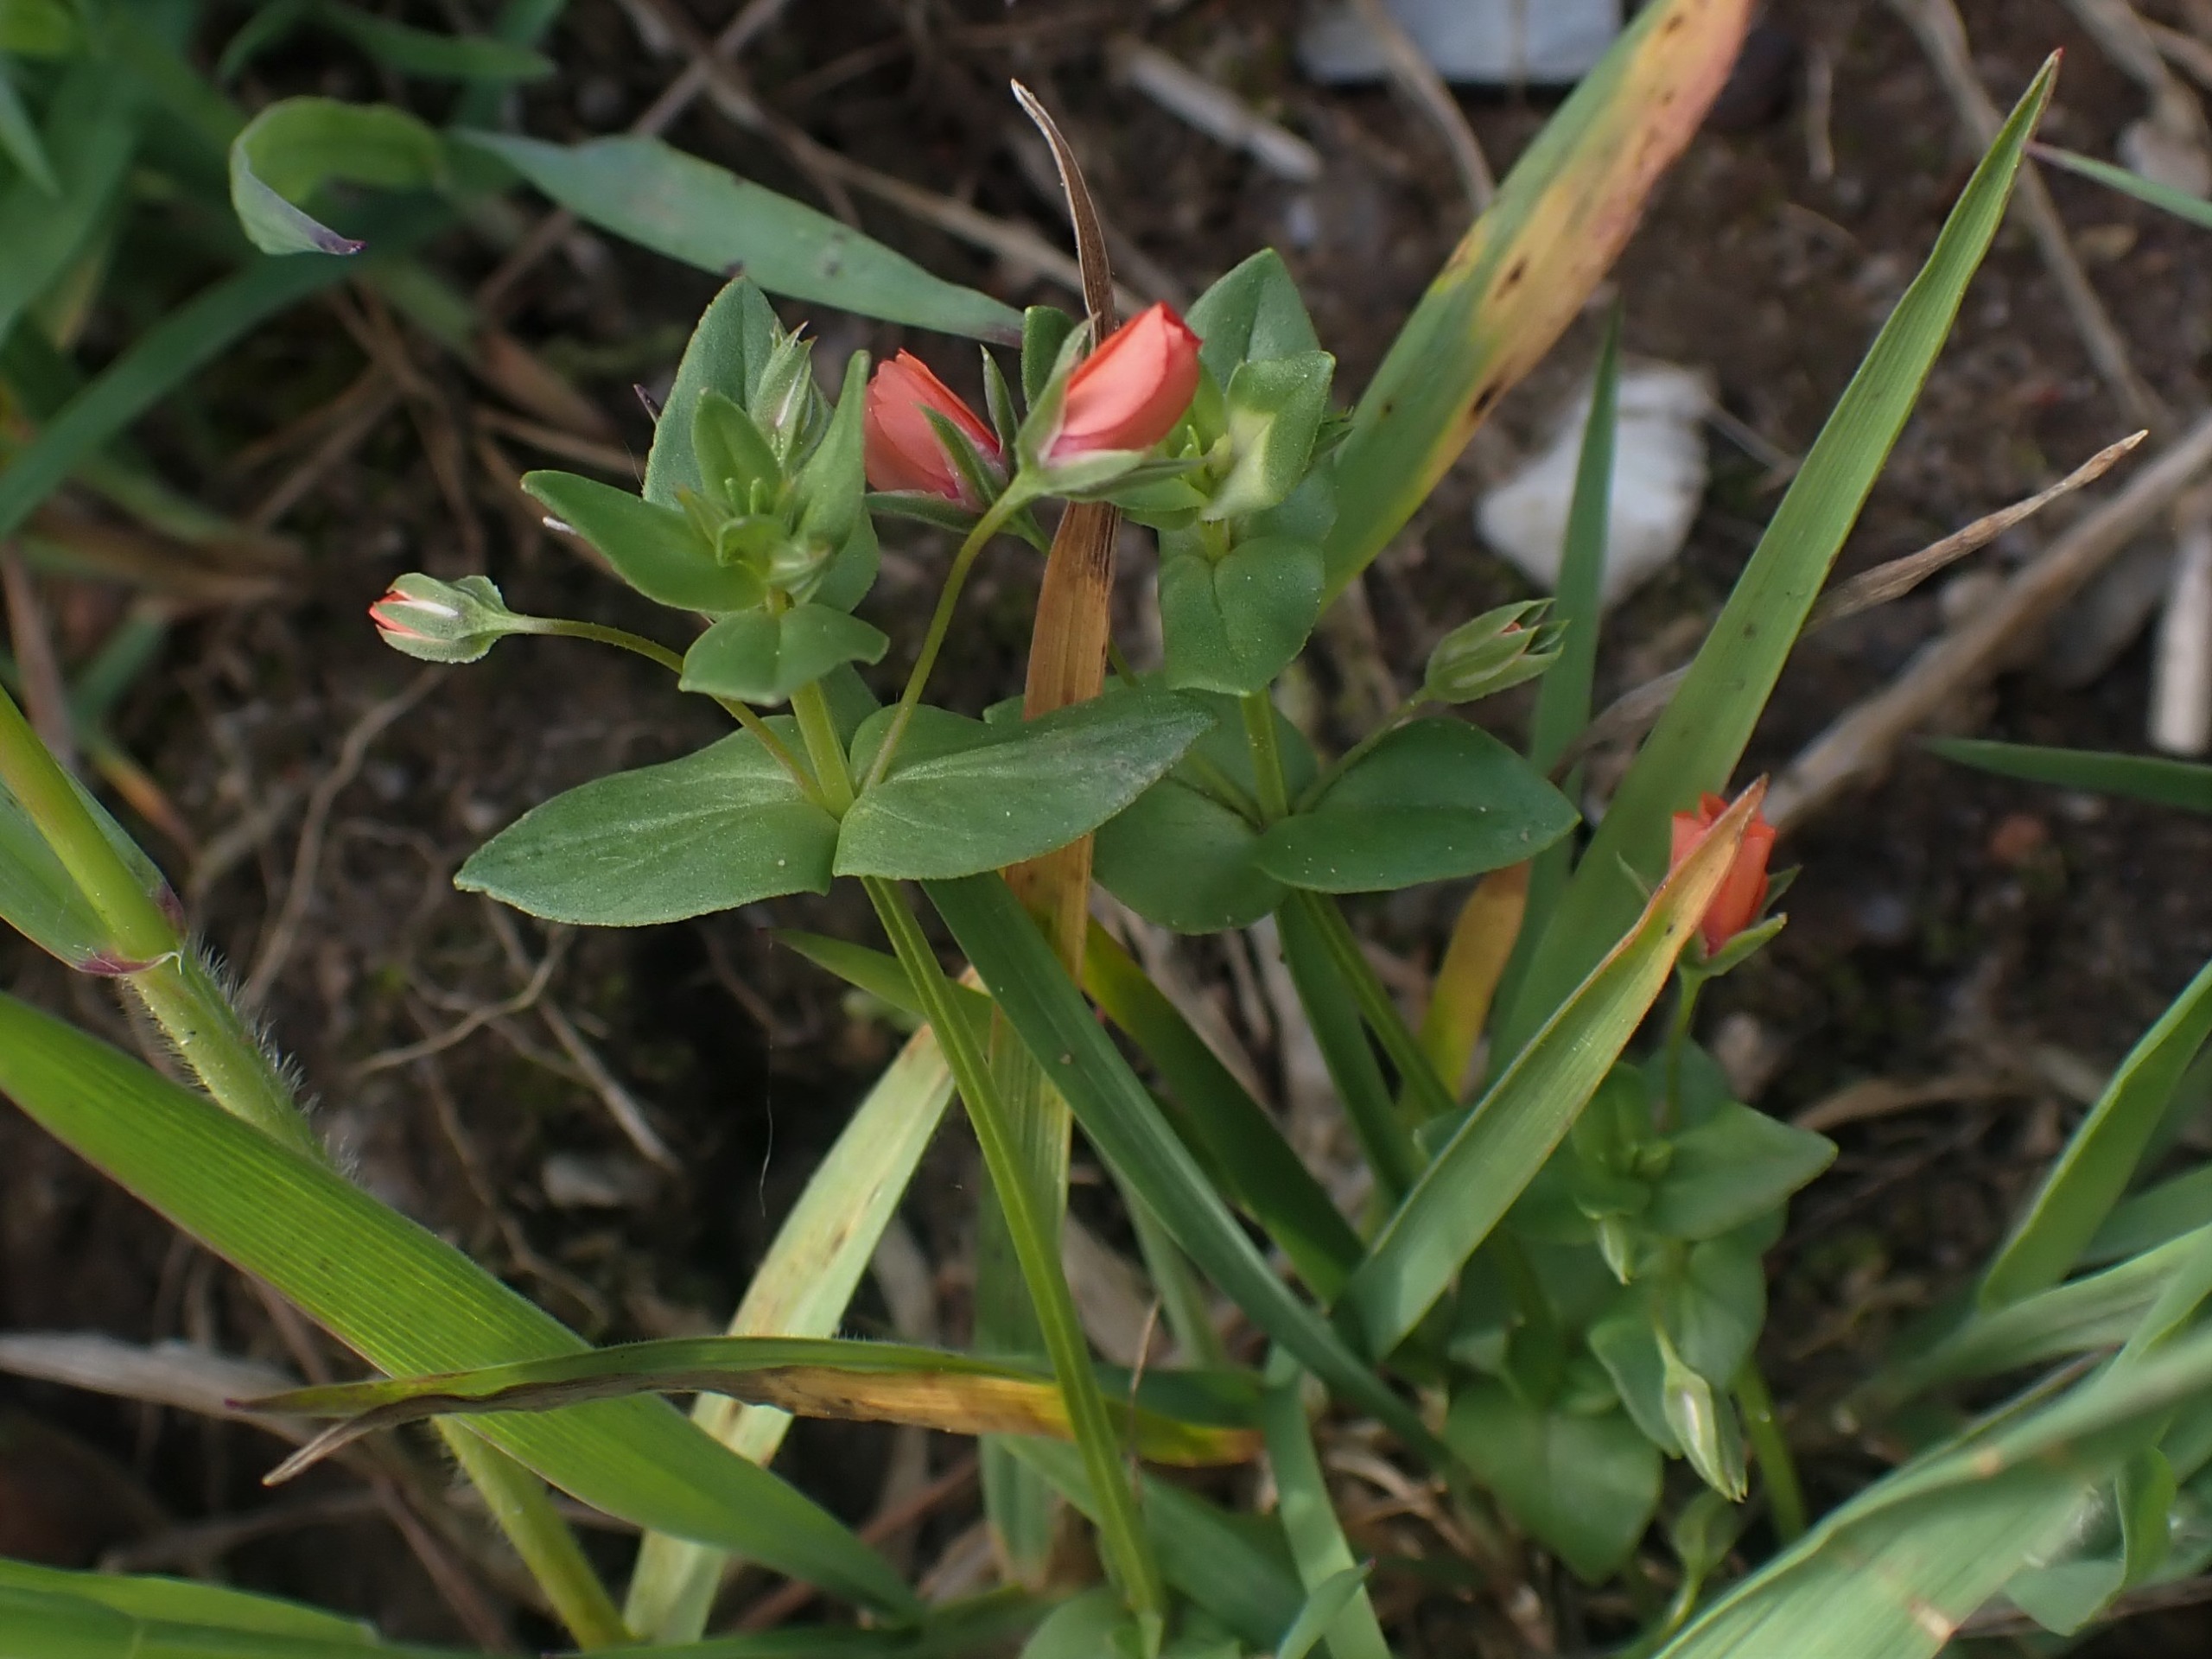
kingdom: Plantae
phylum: Tracheophyta
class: Magnoliopsida
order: Ericales
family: Primulaceae
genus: Lysimachia
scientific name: Lysimachia arvensis
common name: Rød arve
